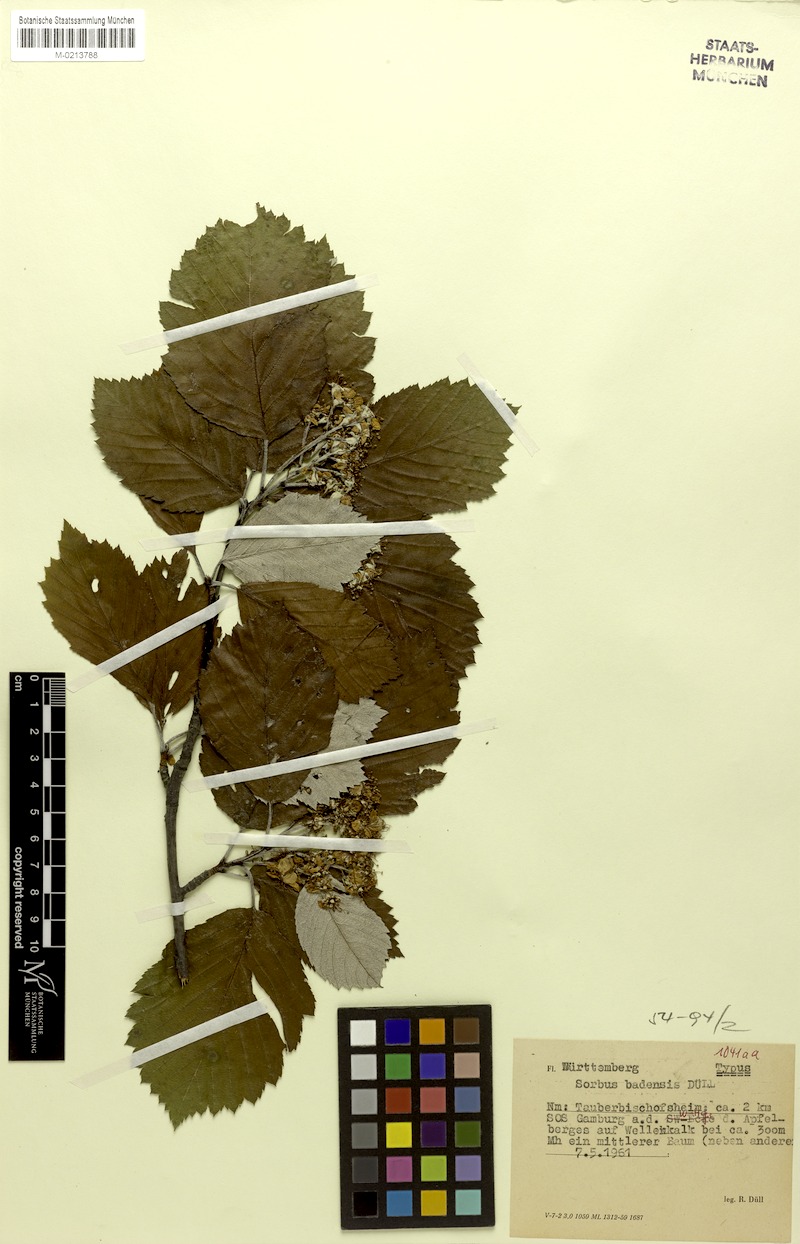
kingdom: Plantae
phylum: Tracheophyta
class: Magnoliopsida
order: Rosales
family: Rosaceae
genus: Karpatiosorbus
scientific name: Karpatiosorbus badensis
